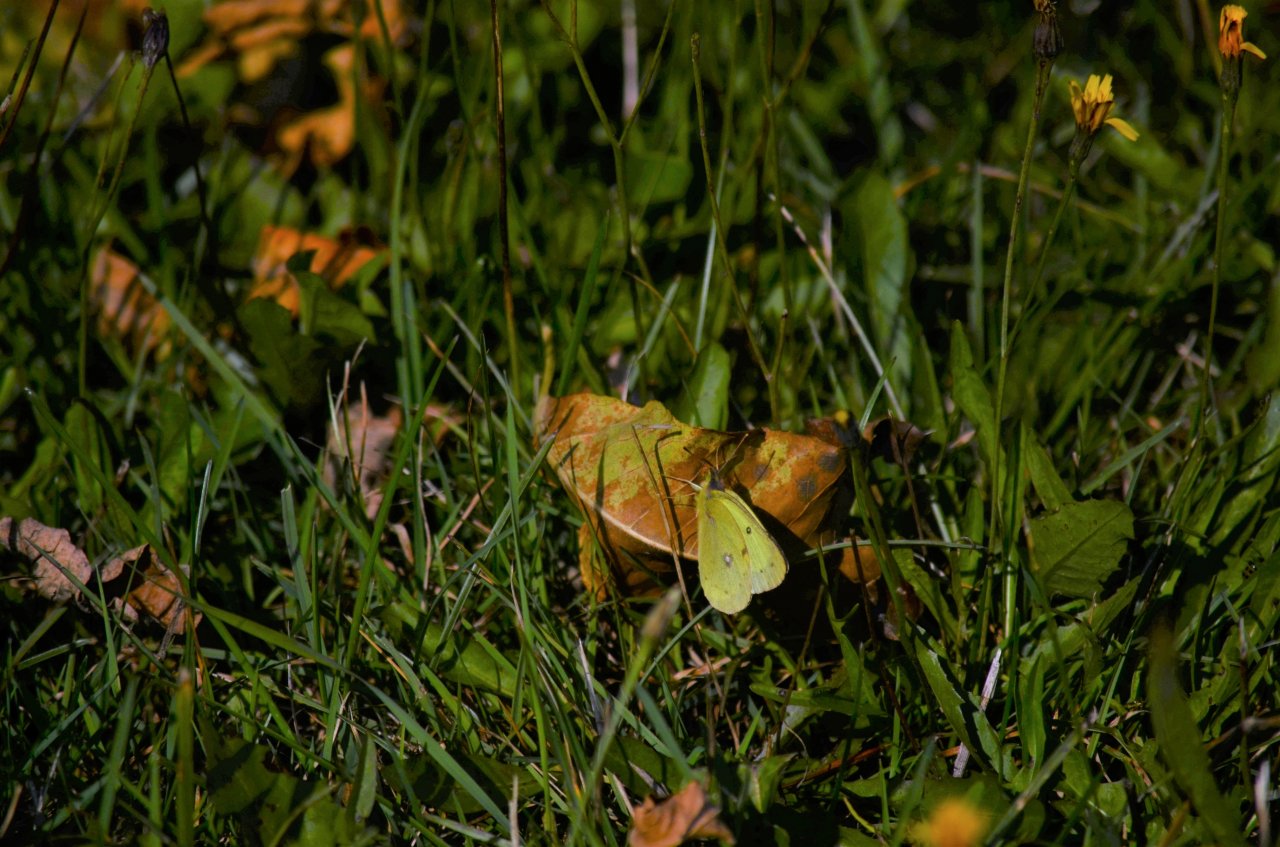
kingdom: Animalia
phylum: Arthropoda
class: Insecta
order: Lepidoptera
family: Pieridae
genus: Colias
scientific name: Colias philodice
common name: Clouded Sulphur
